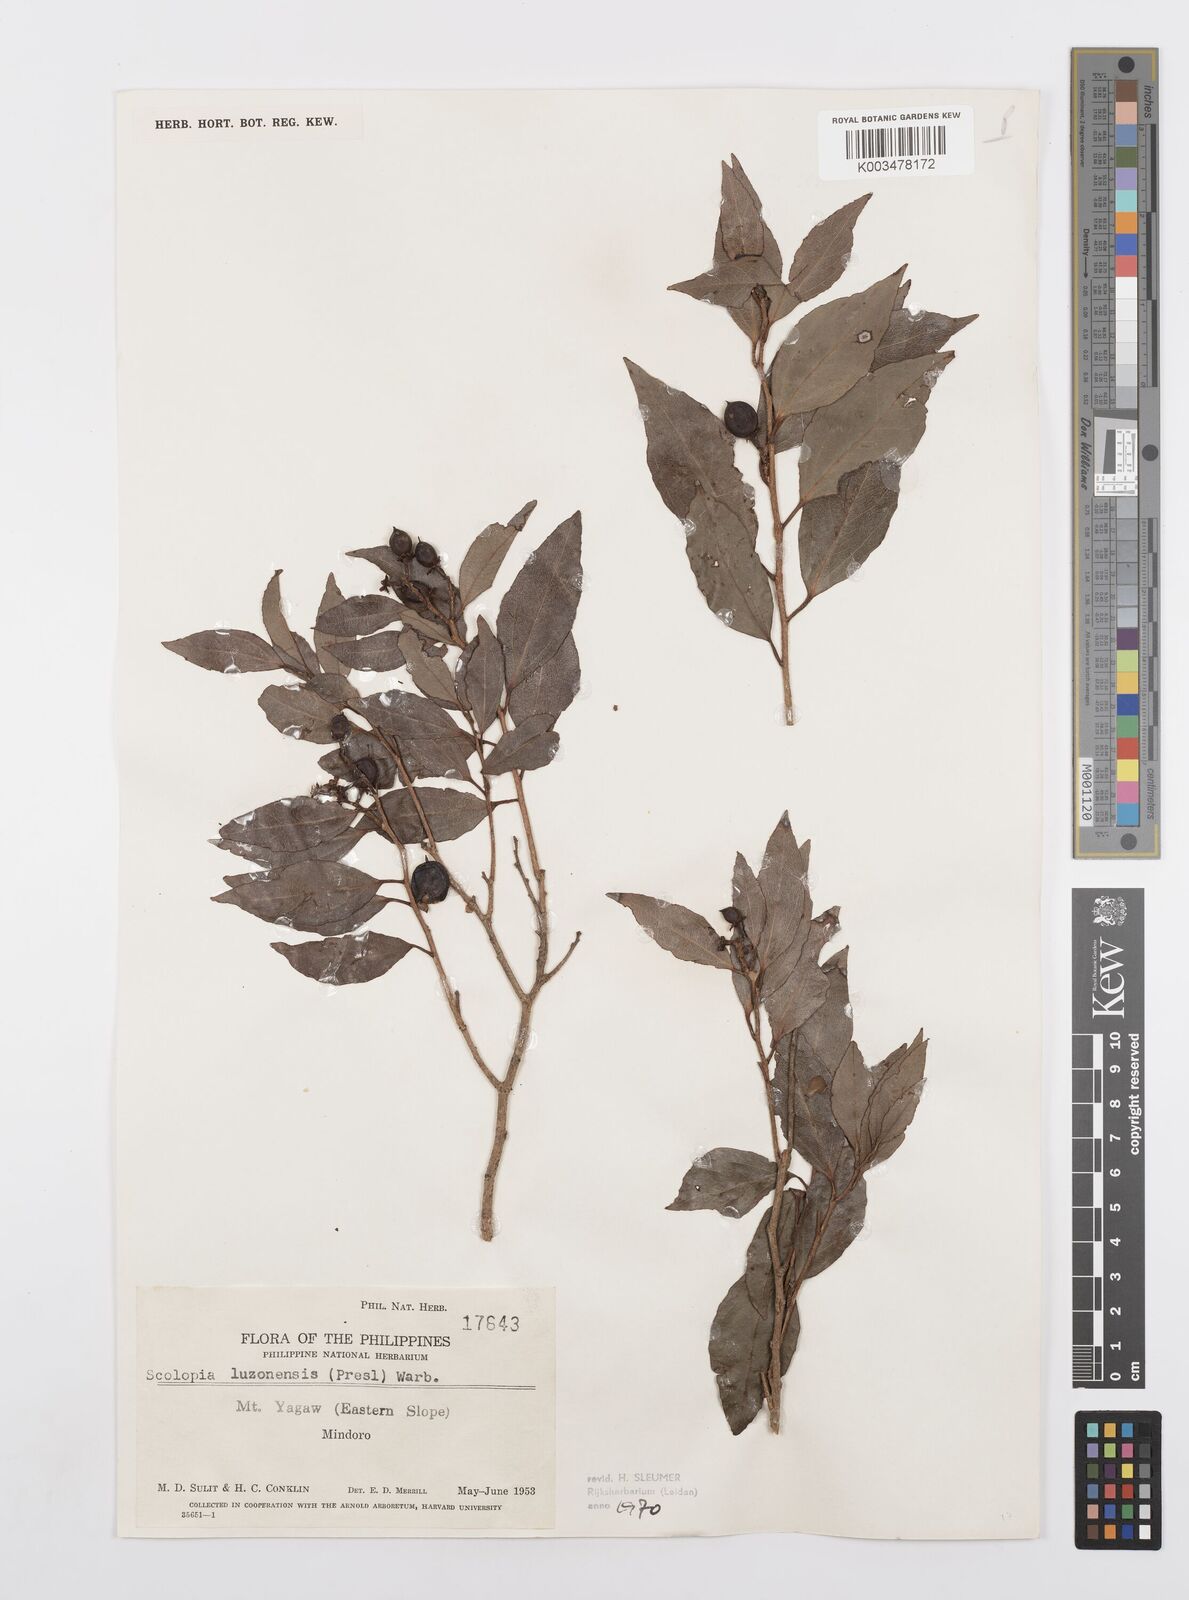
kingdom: Plantae
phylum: Tracheophyta
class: Magnoliopsida
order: Malpighiales
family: Salicaceae
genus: Scolopia
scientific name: Scolopia luzonensis
